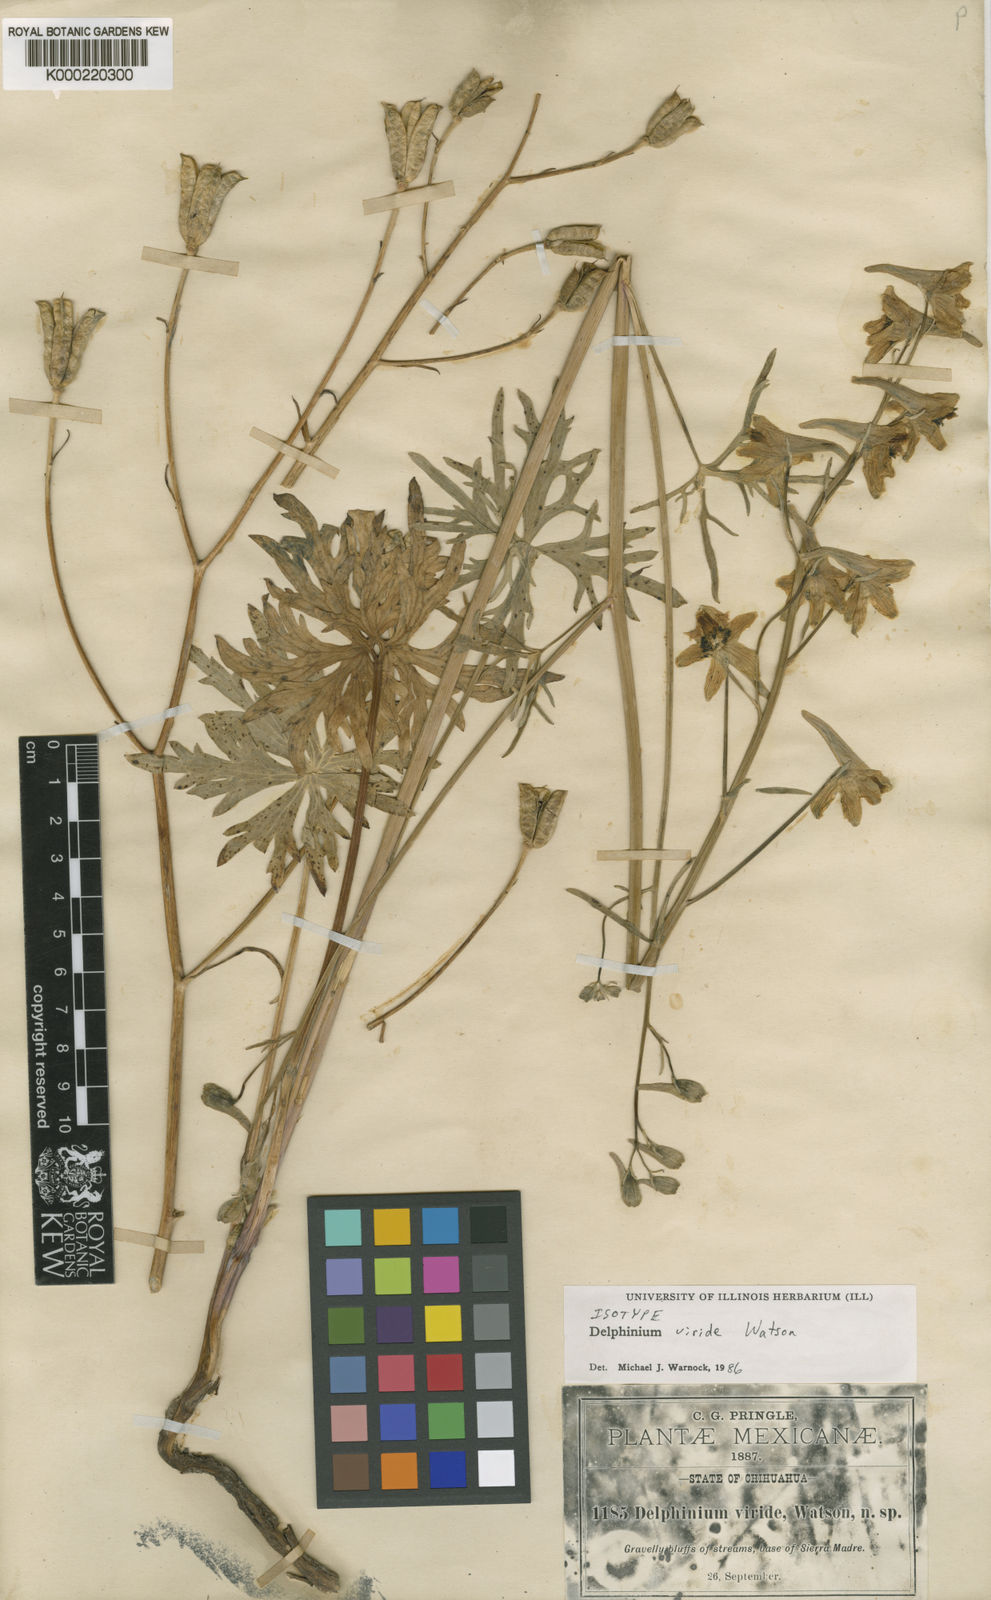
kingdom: Plantae
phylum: Tracheophyta
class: Magnoliopsida
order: Ranunculales
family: Ranunculaceae
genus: Delphinium
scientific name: Delphinium viride
